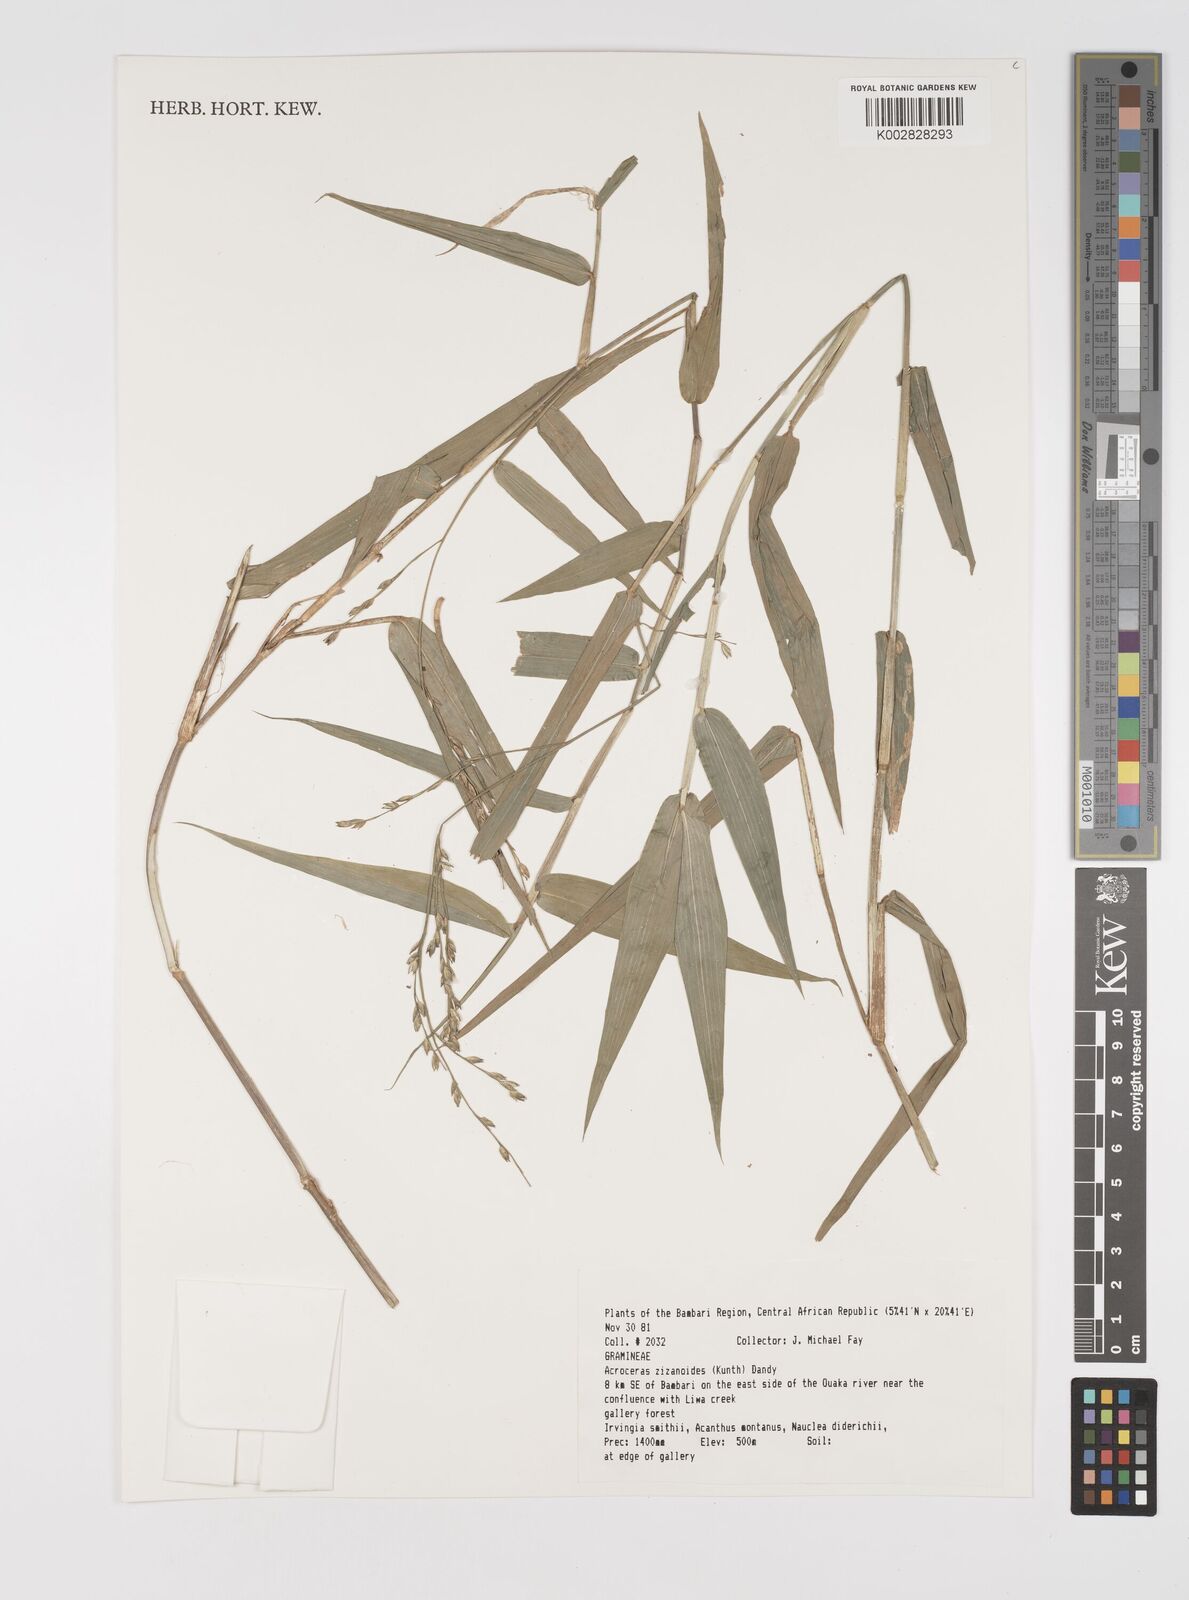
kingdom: Plantae
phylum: Tracheophyta
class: Liliopsida
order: Poales
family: Poaceae
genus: Acroceras
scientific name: Acroceras zizanioides
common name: Oat grass
